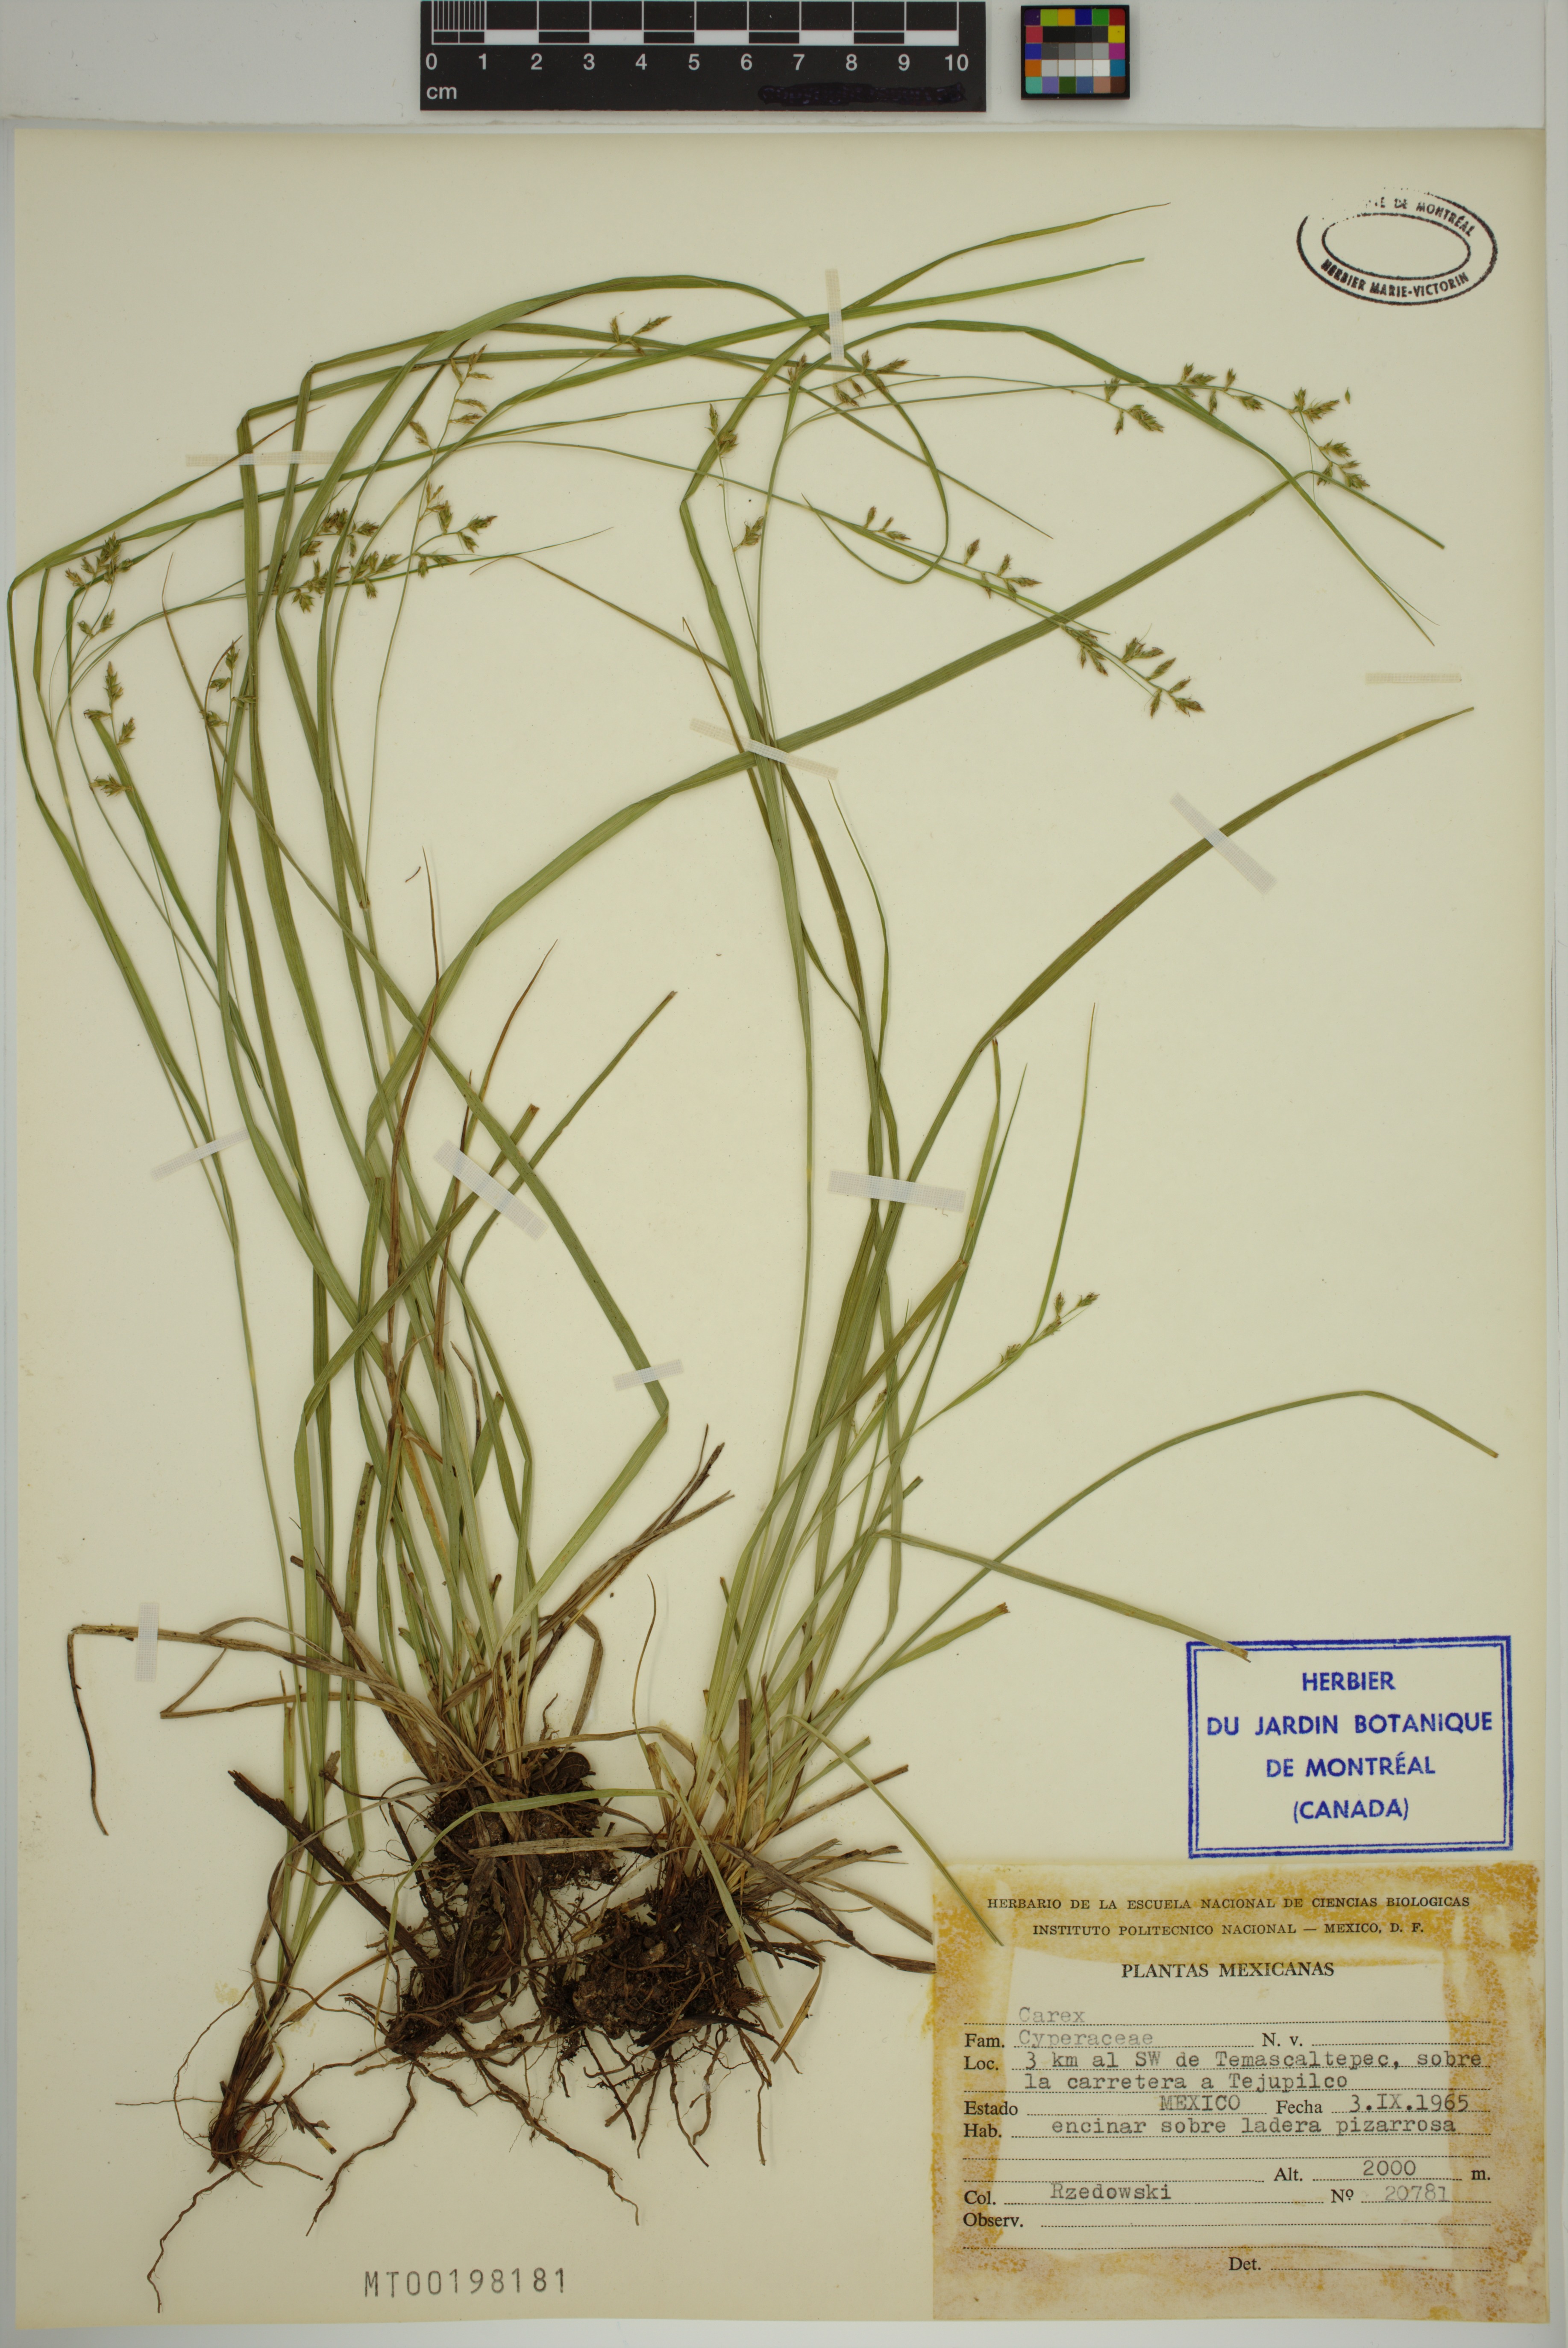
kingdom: Plantae
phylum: Tracheophyta
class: Liliopsida
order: Poales
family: Cyperaceae
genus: Carex
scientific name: Carex
